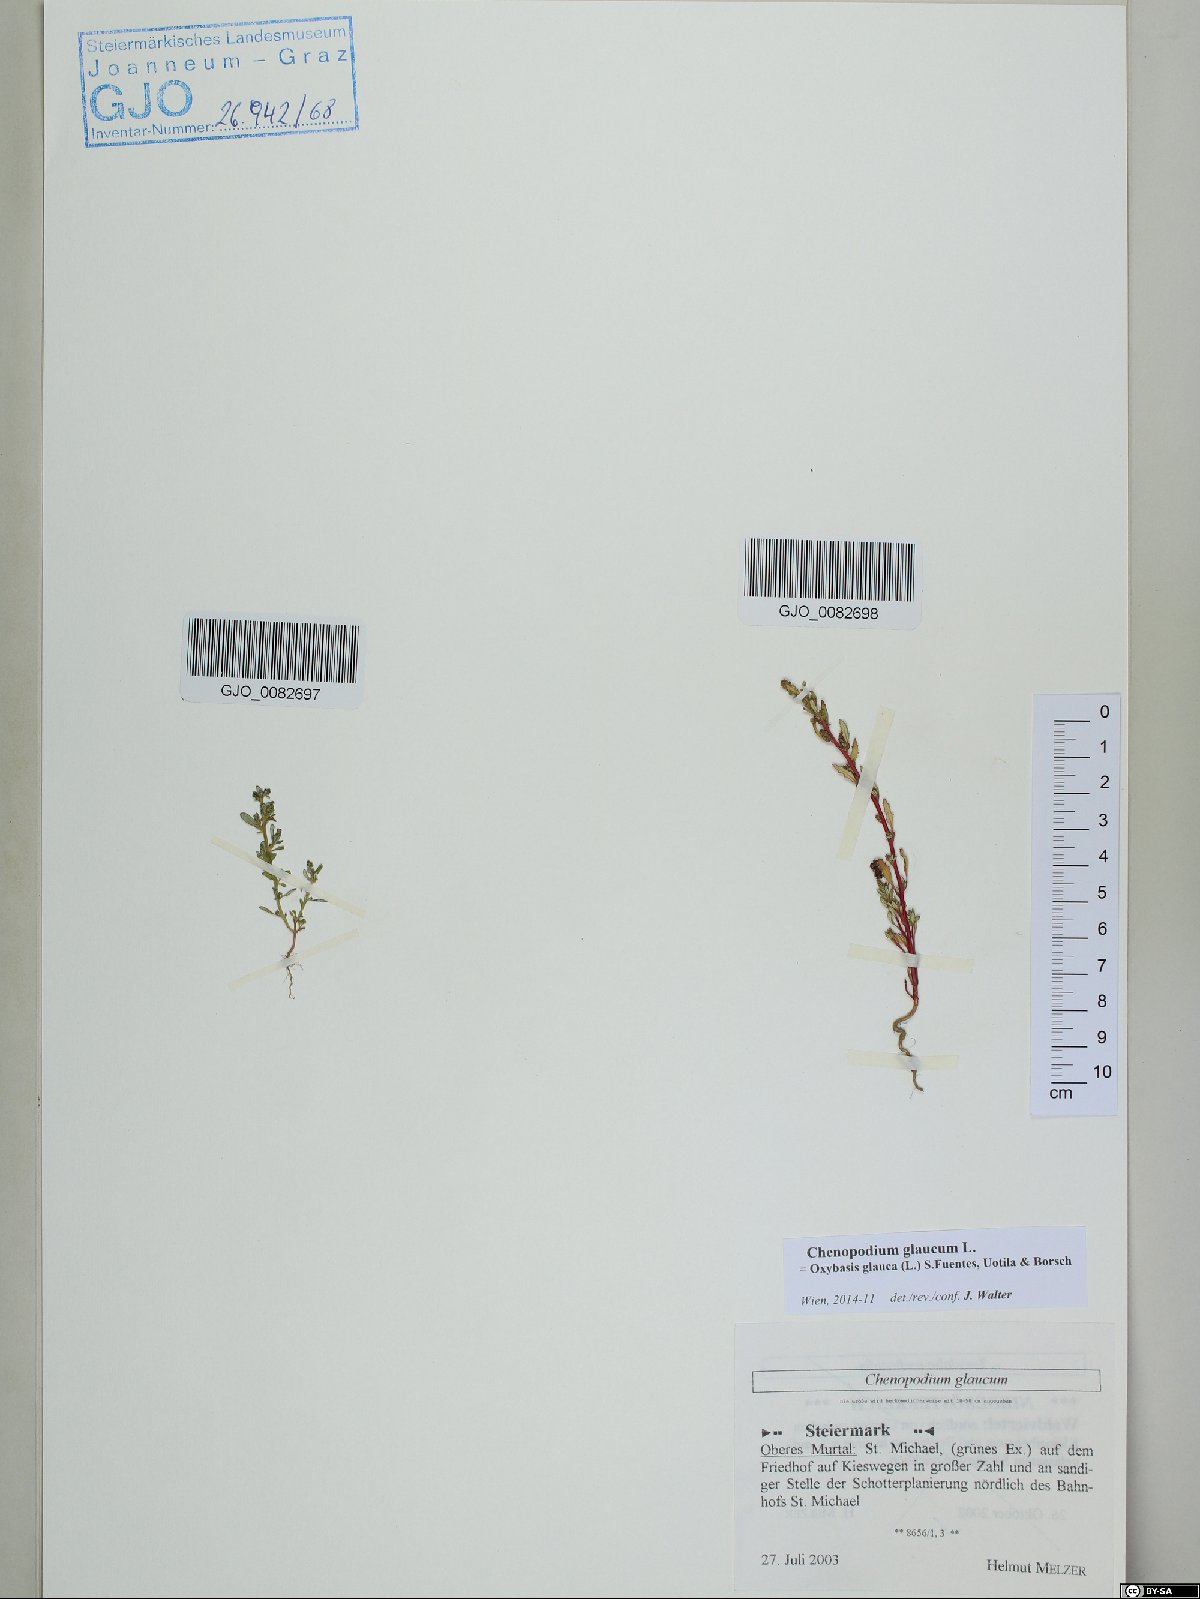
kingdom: Plantae
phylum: Tracheophyta
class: Magnoliopsida
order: Caryophyllales
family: Amaranthaceae
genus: Oxybasis
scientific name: Oxybasis glauca
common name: Glaucous goosefoot
